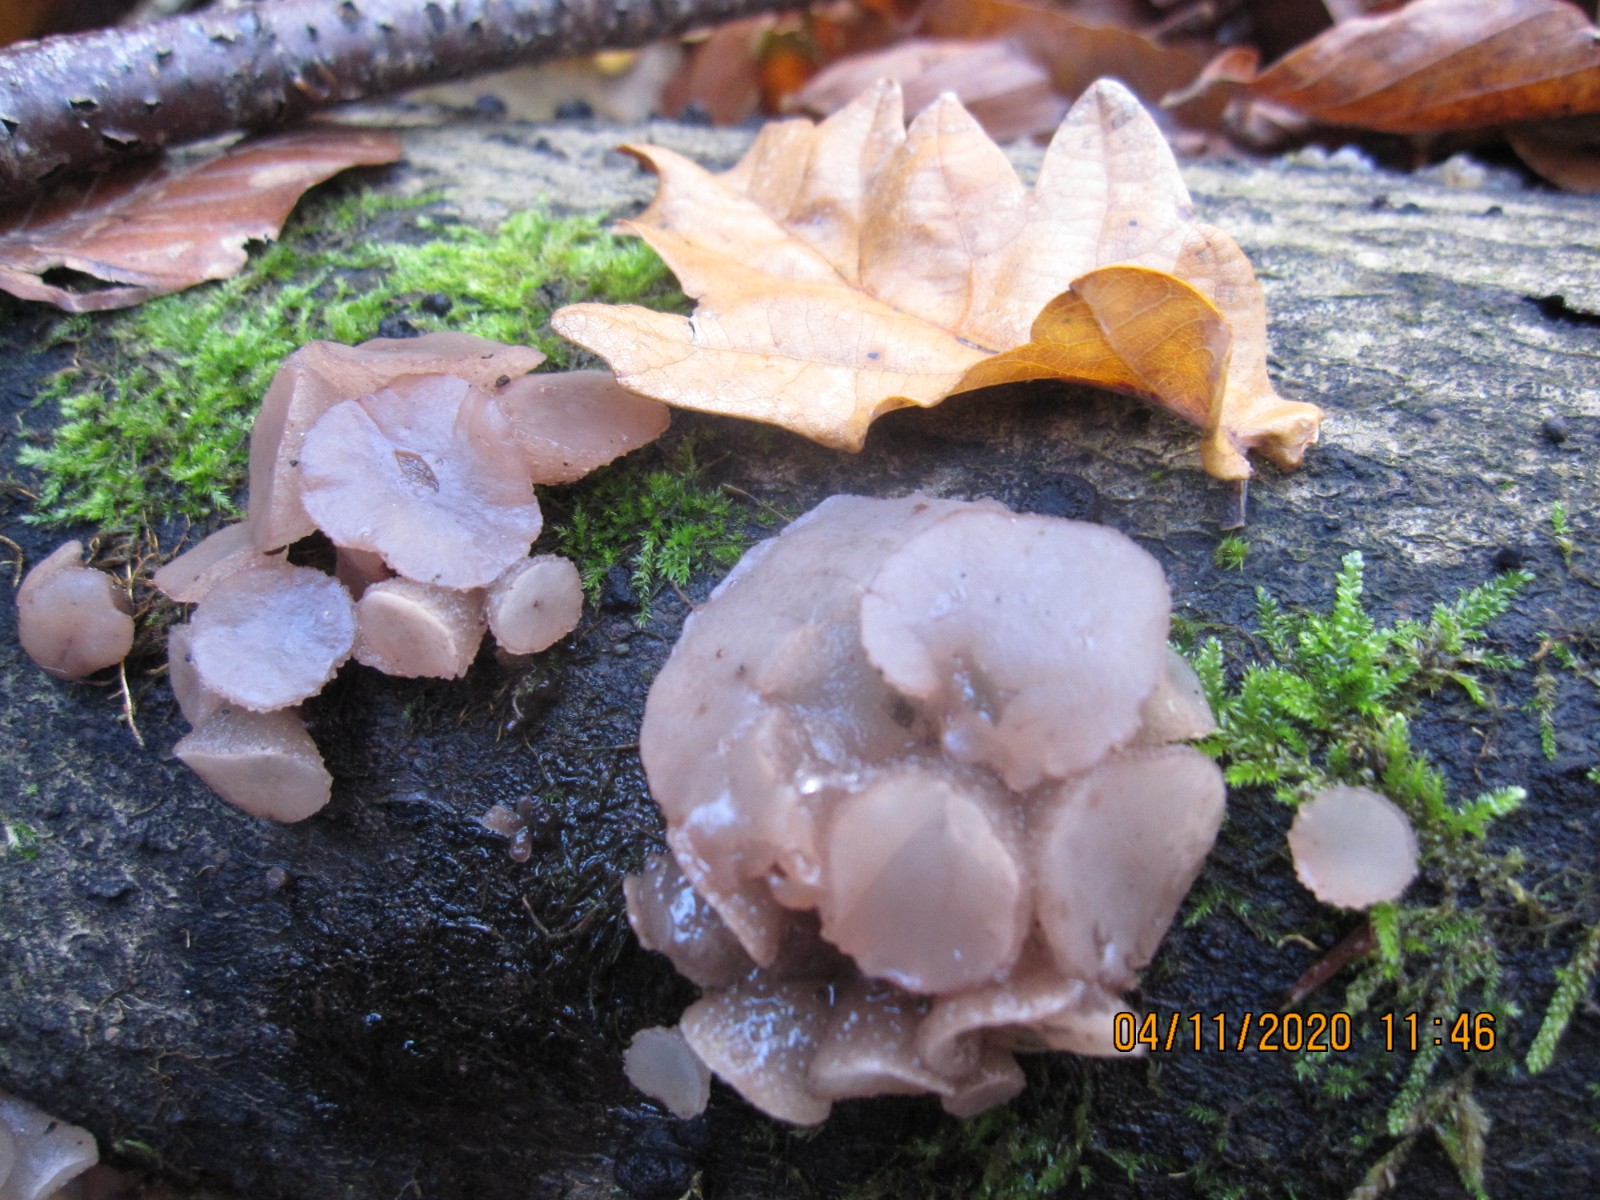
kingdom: Fungi
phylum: Ascomycota
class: Leotiomycetes
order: Helotiales
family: Gelatinodiscaceae
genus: Neobulgaria
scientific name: Neobulgaria pura
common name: bleg bævreskive
